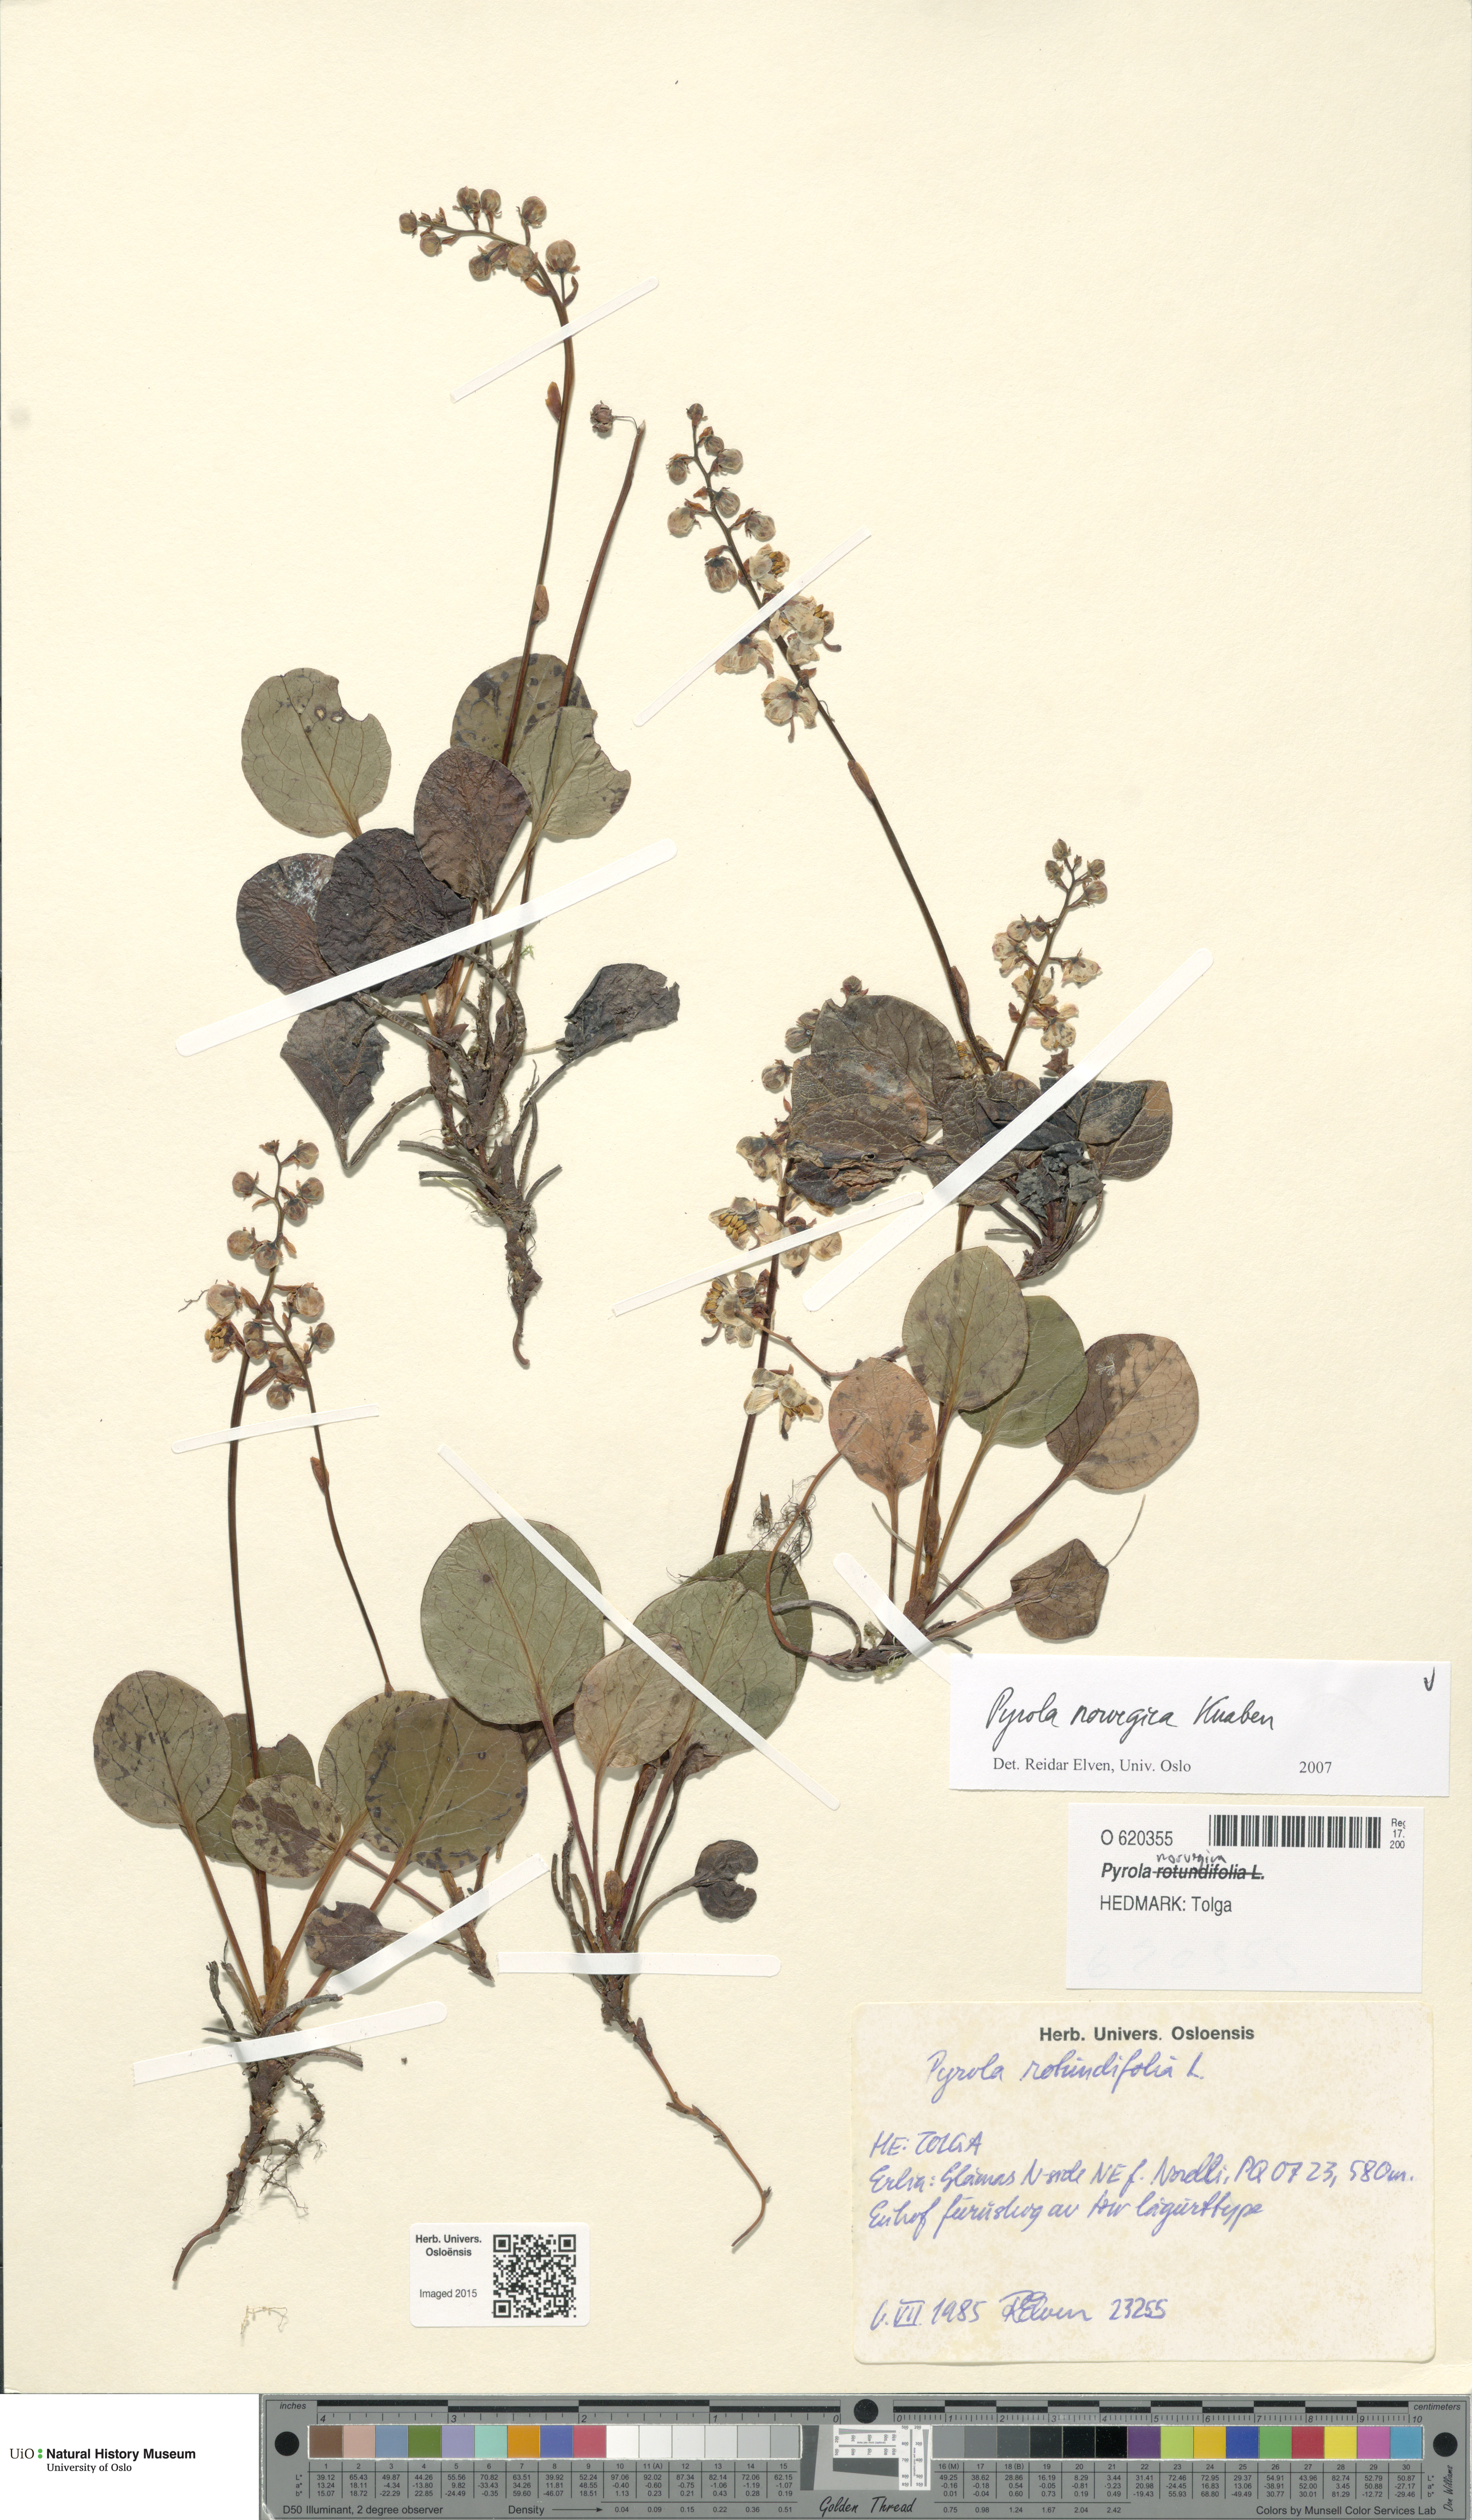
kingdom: Plantae
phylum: Tracheophyta
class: Magnoliopsida
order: Ericales
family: Ericaceae
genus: Pyrola
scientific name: Pyrola rotundifolia
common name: Round-leaved wintergreen
